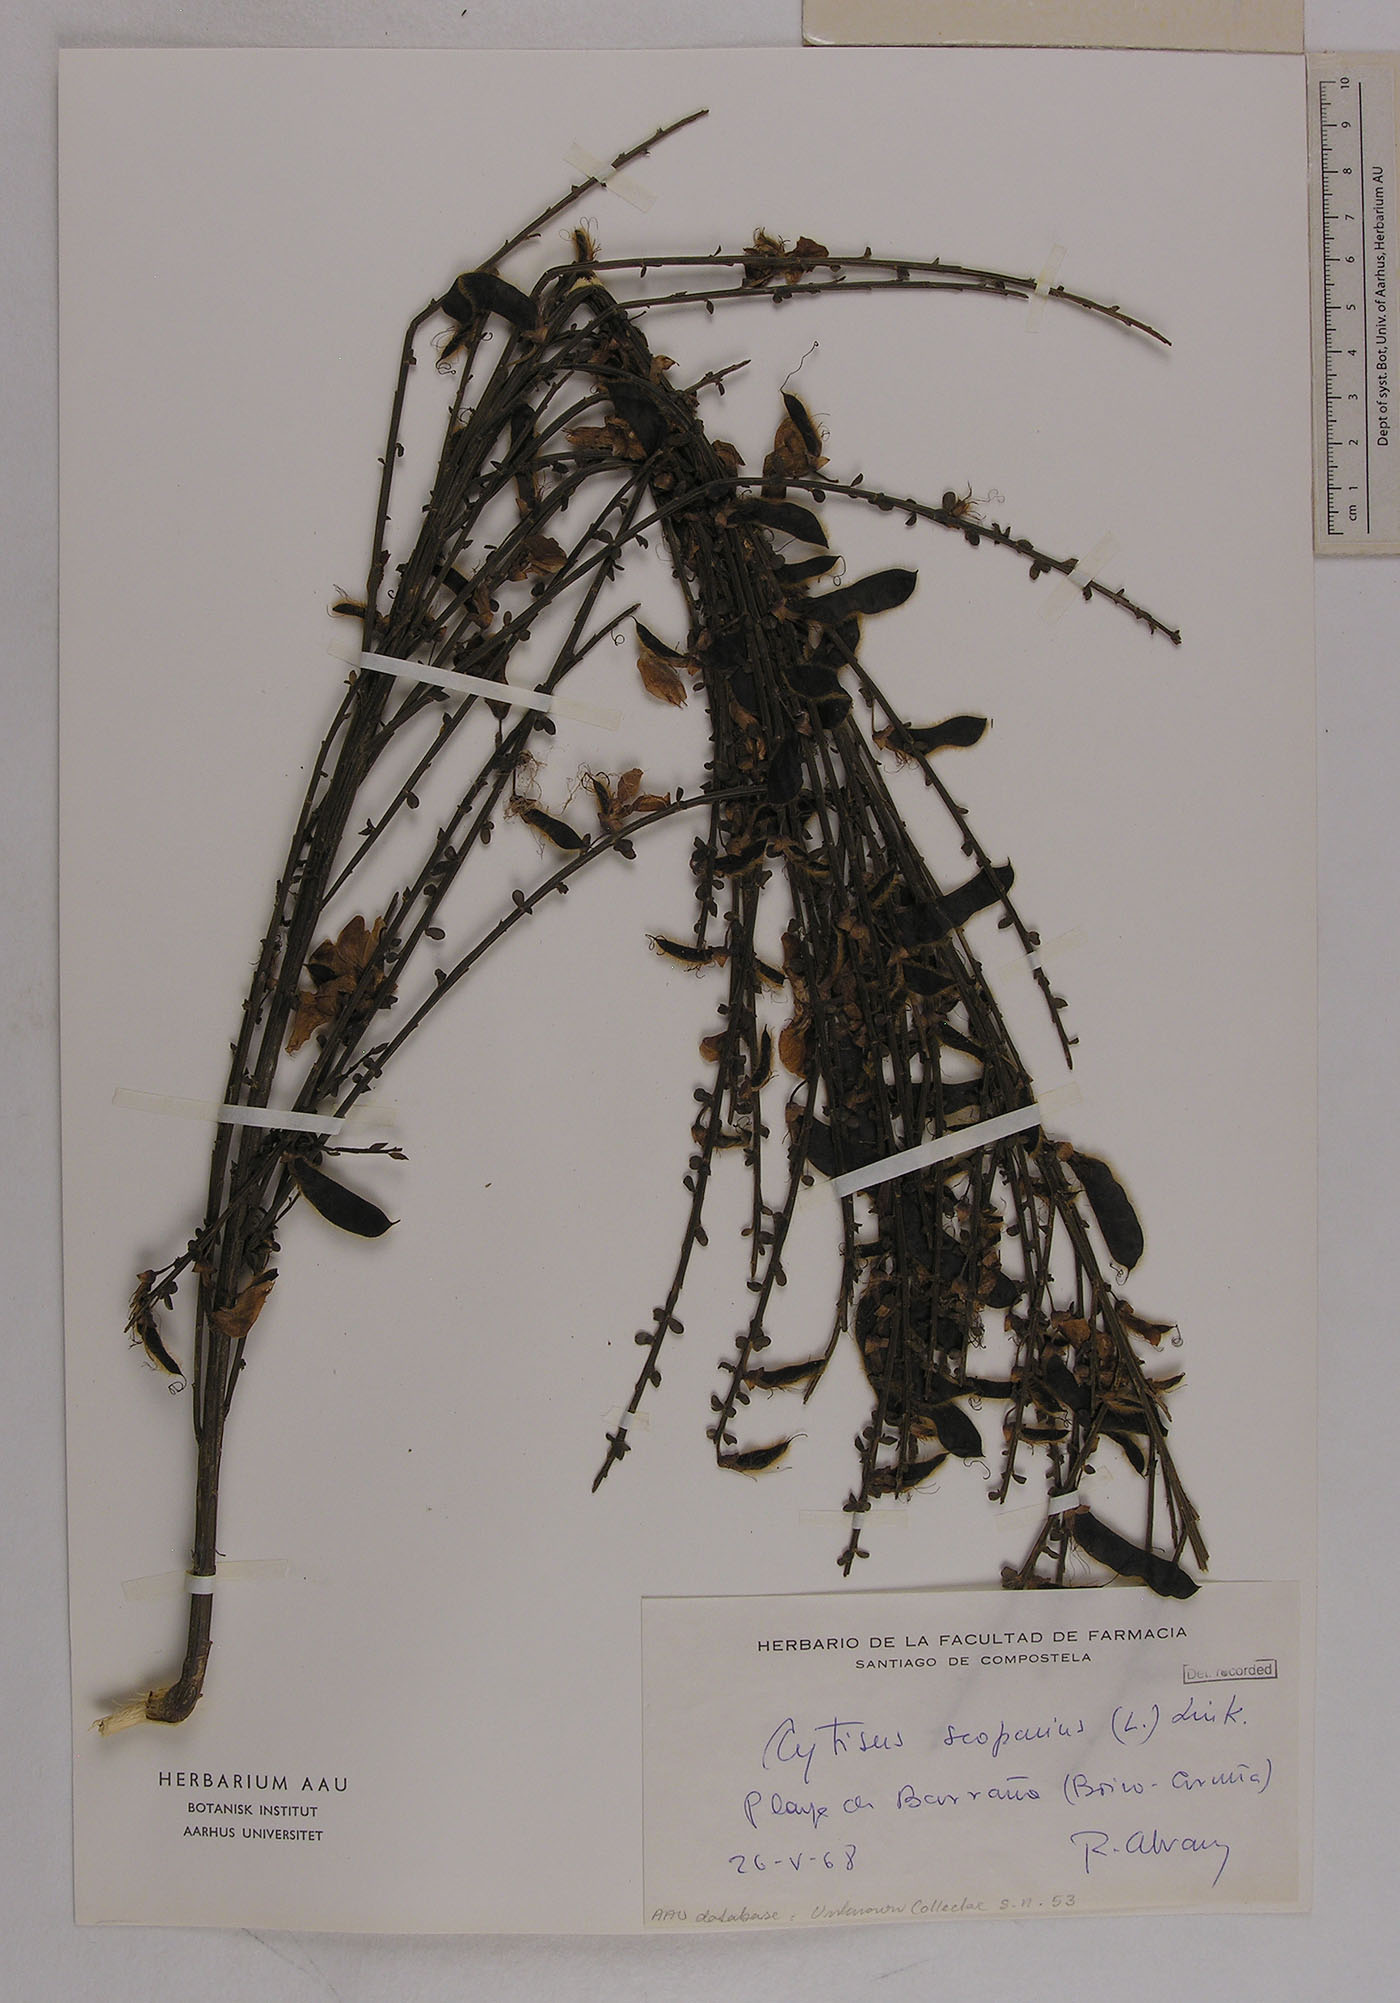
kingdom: Plantae
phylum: Tracheophyta
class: Magnoliopsida
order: Fabales
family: Fabaceae
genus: Cytisus
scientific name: Cytisus scoparius
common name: Scotch broom
